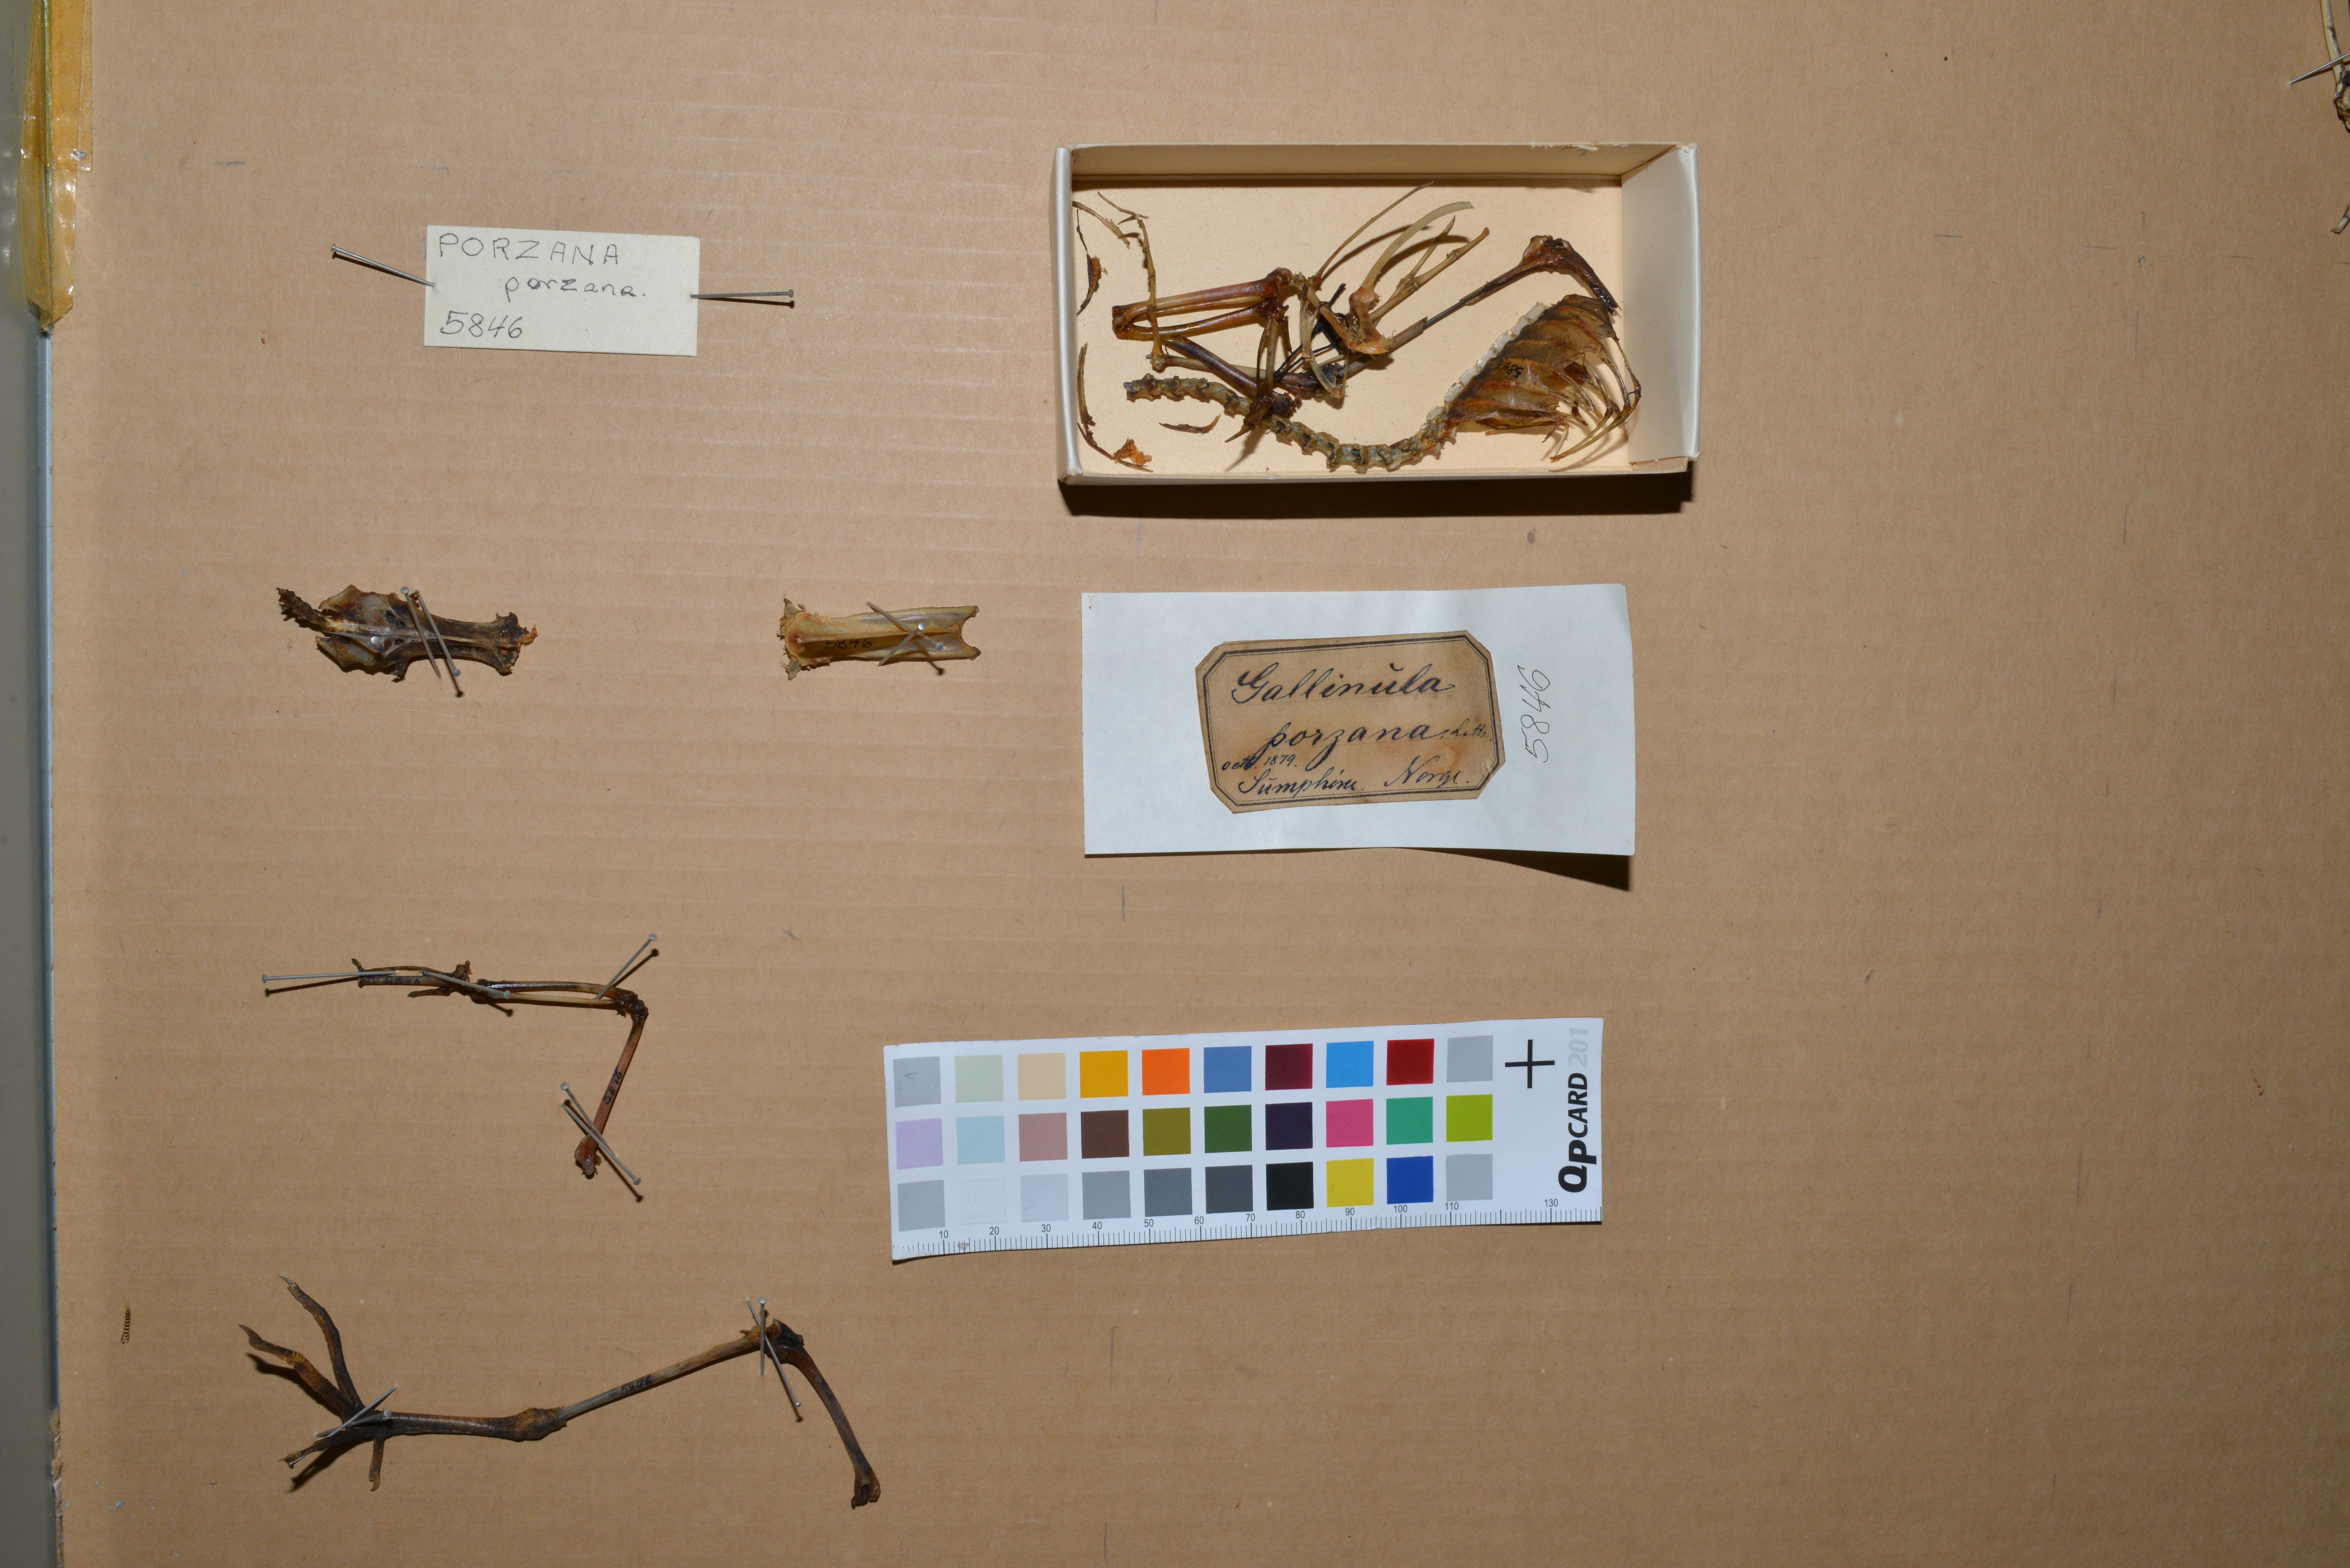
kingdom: Animalia
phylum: Chordata
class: Aves
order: Gruiformes
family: Rallidae
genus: Porzana
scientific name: Porzana porzana
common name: Spotted crake
